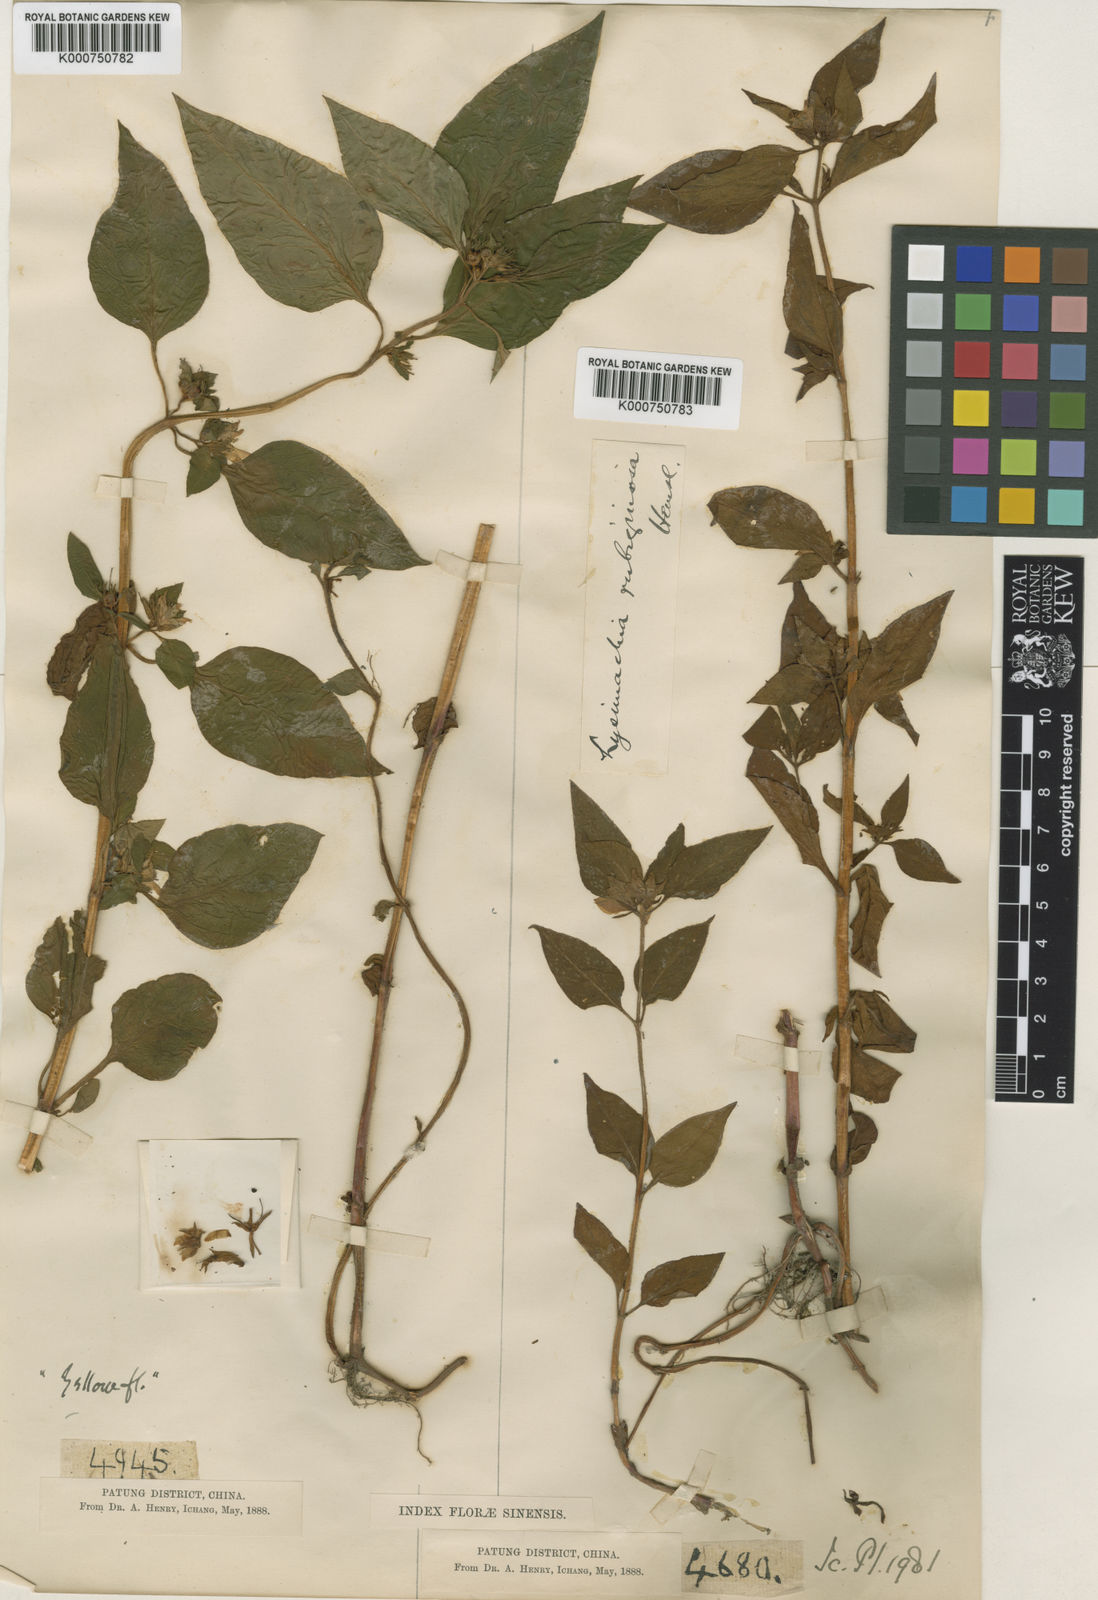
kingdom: Plantae
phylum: Tracheophyta
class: Magnoliopsida
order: Ericales
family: Primulaceae
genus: Lysimachia
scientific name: Lysimachia rubiginosa
